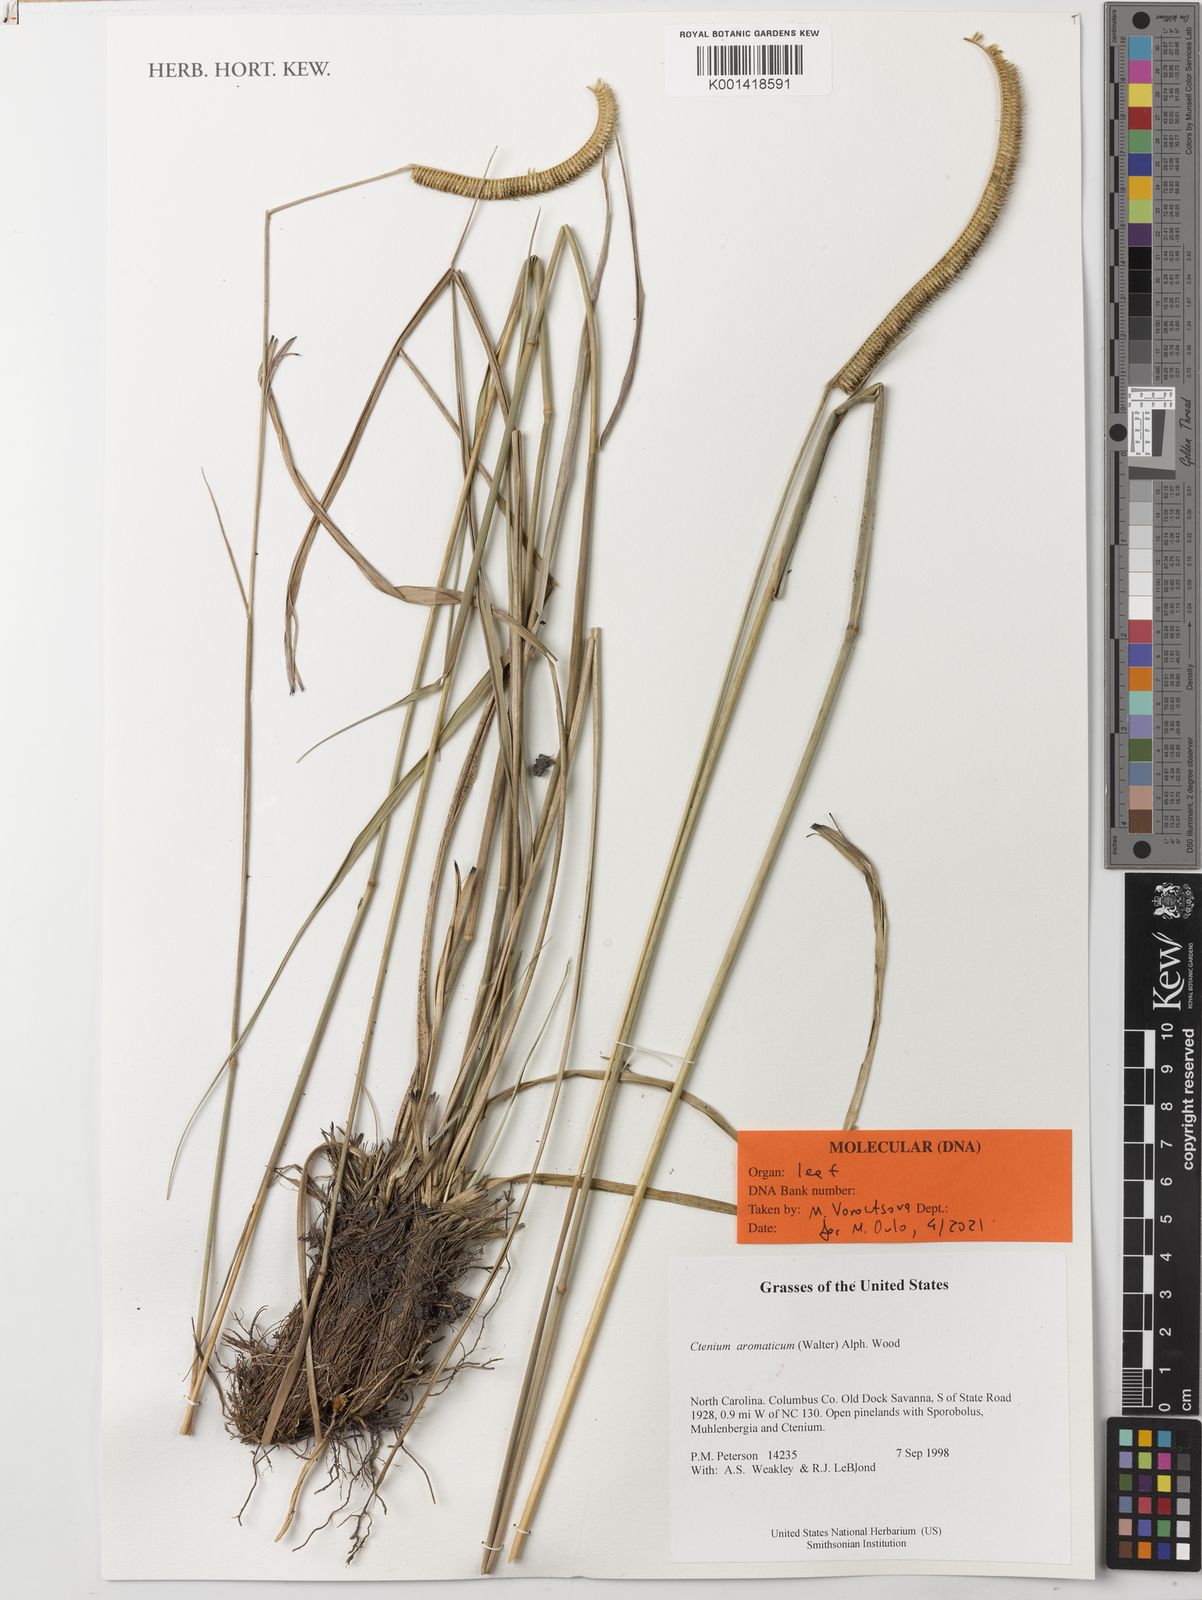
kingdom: Plantae
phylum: Tracheophyta
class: Liliopsida
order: Poales
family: Poaceae
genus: Ctenium
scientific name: Ctenium aromaticum
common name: Toothache grass
